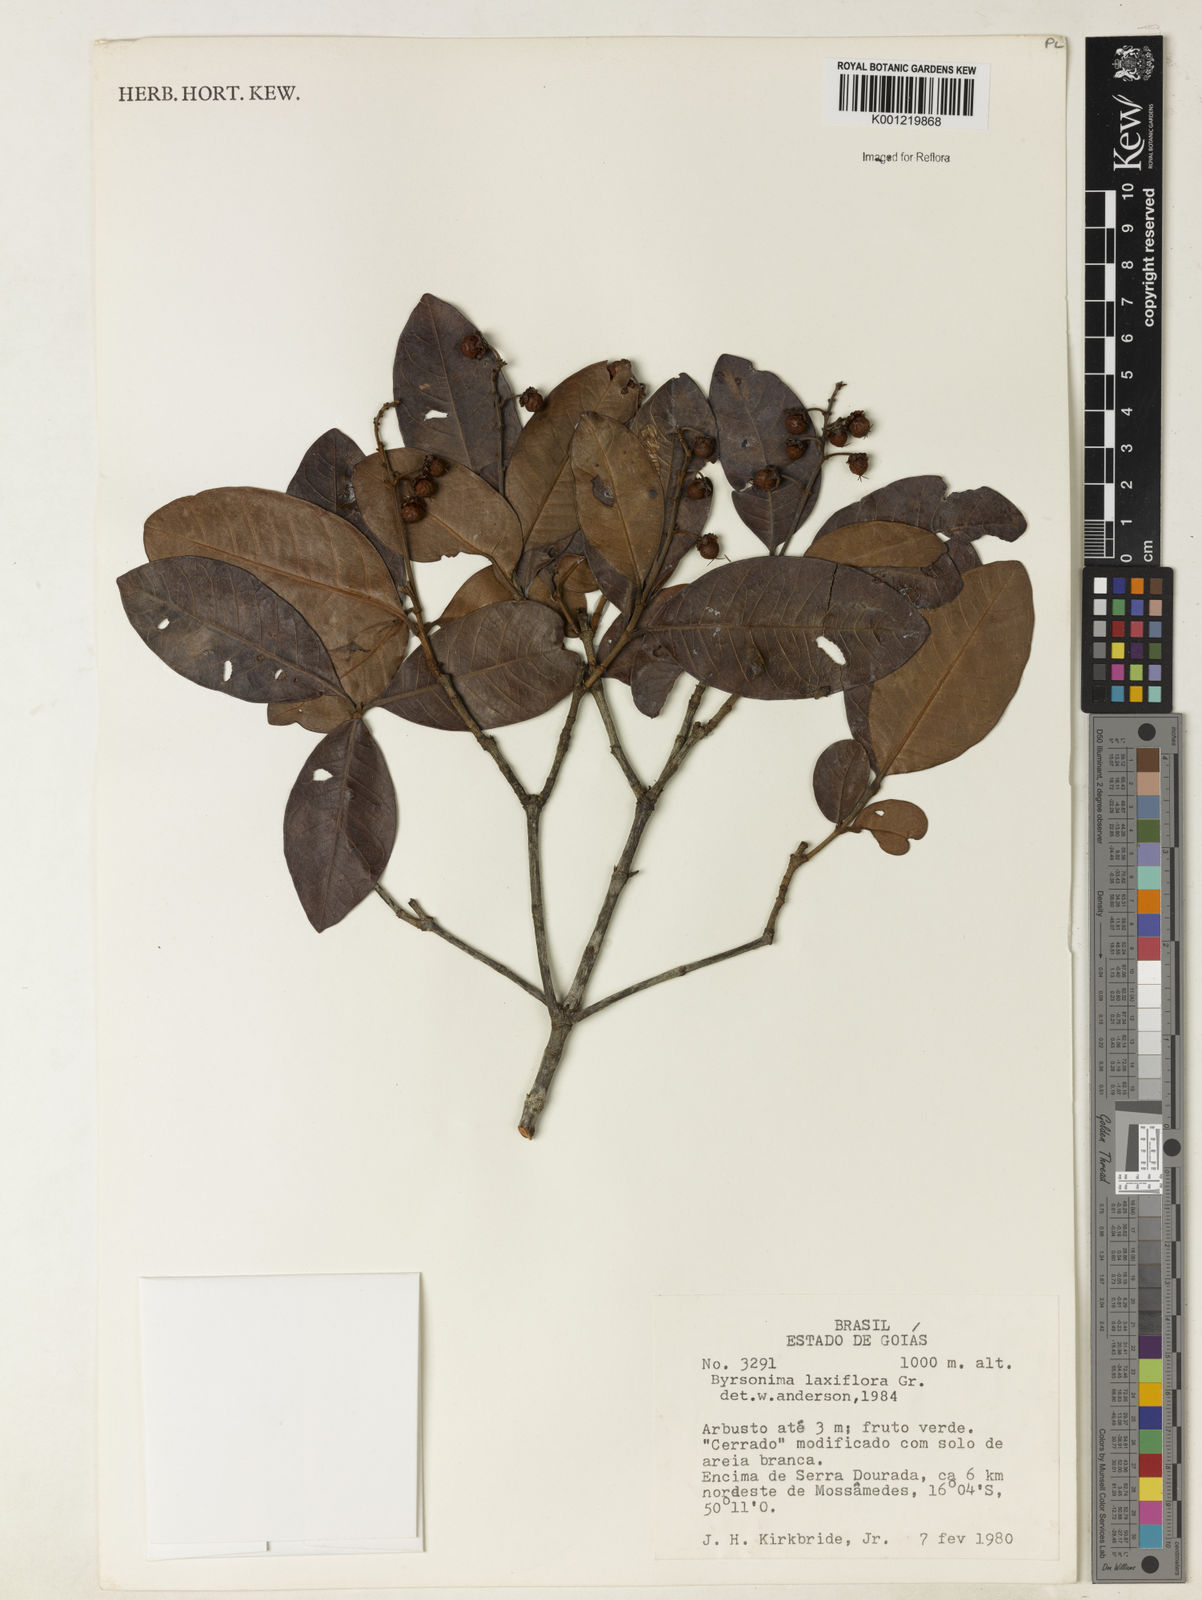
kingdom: Plantae
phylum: Tracheophyta
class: Magnoliopsida
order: Malpighiales
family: Malpighiaceae
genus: Byrsonima
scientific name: Byrsonima laxiflora
